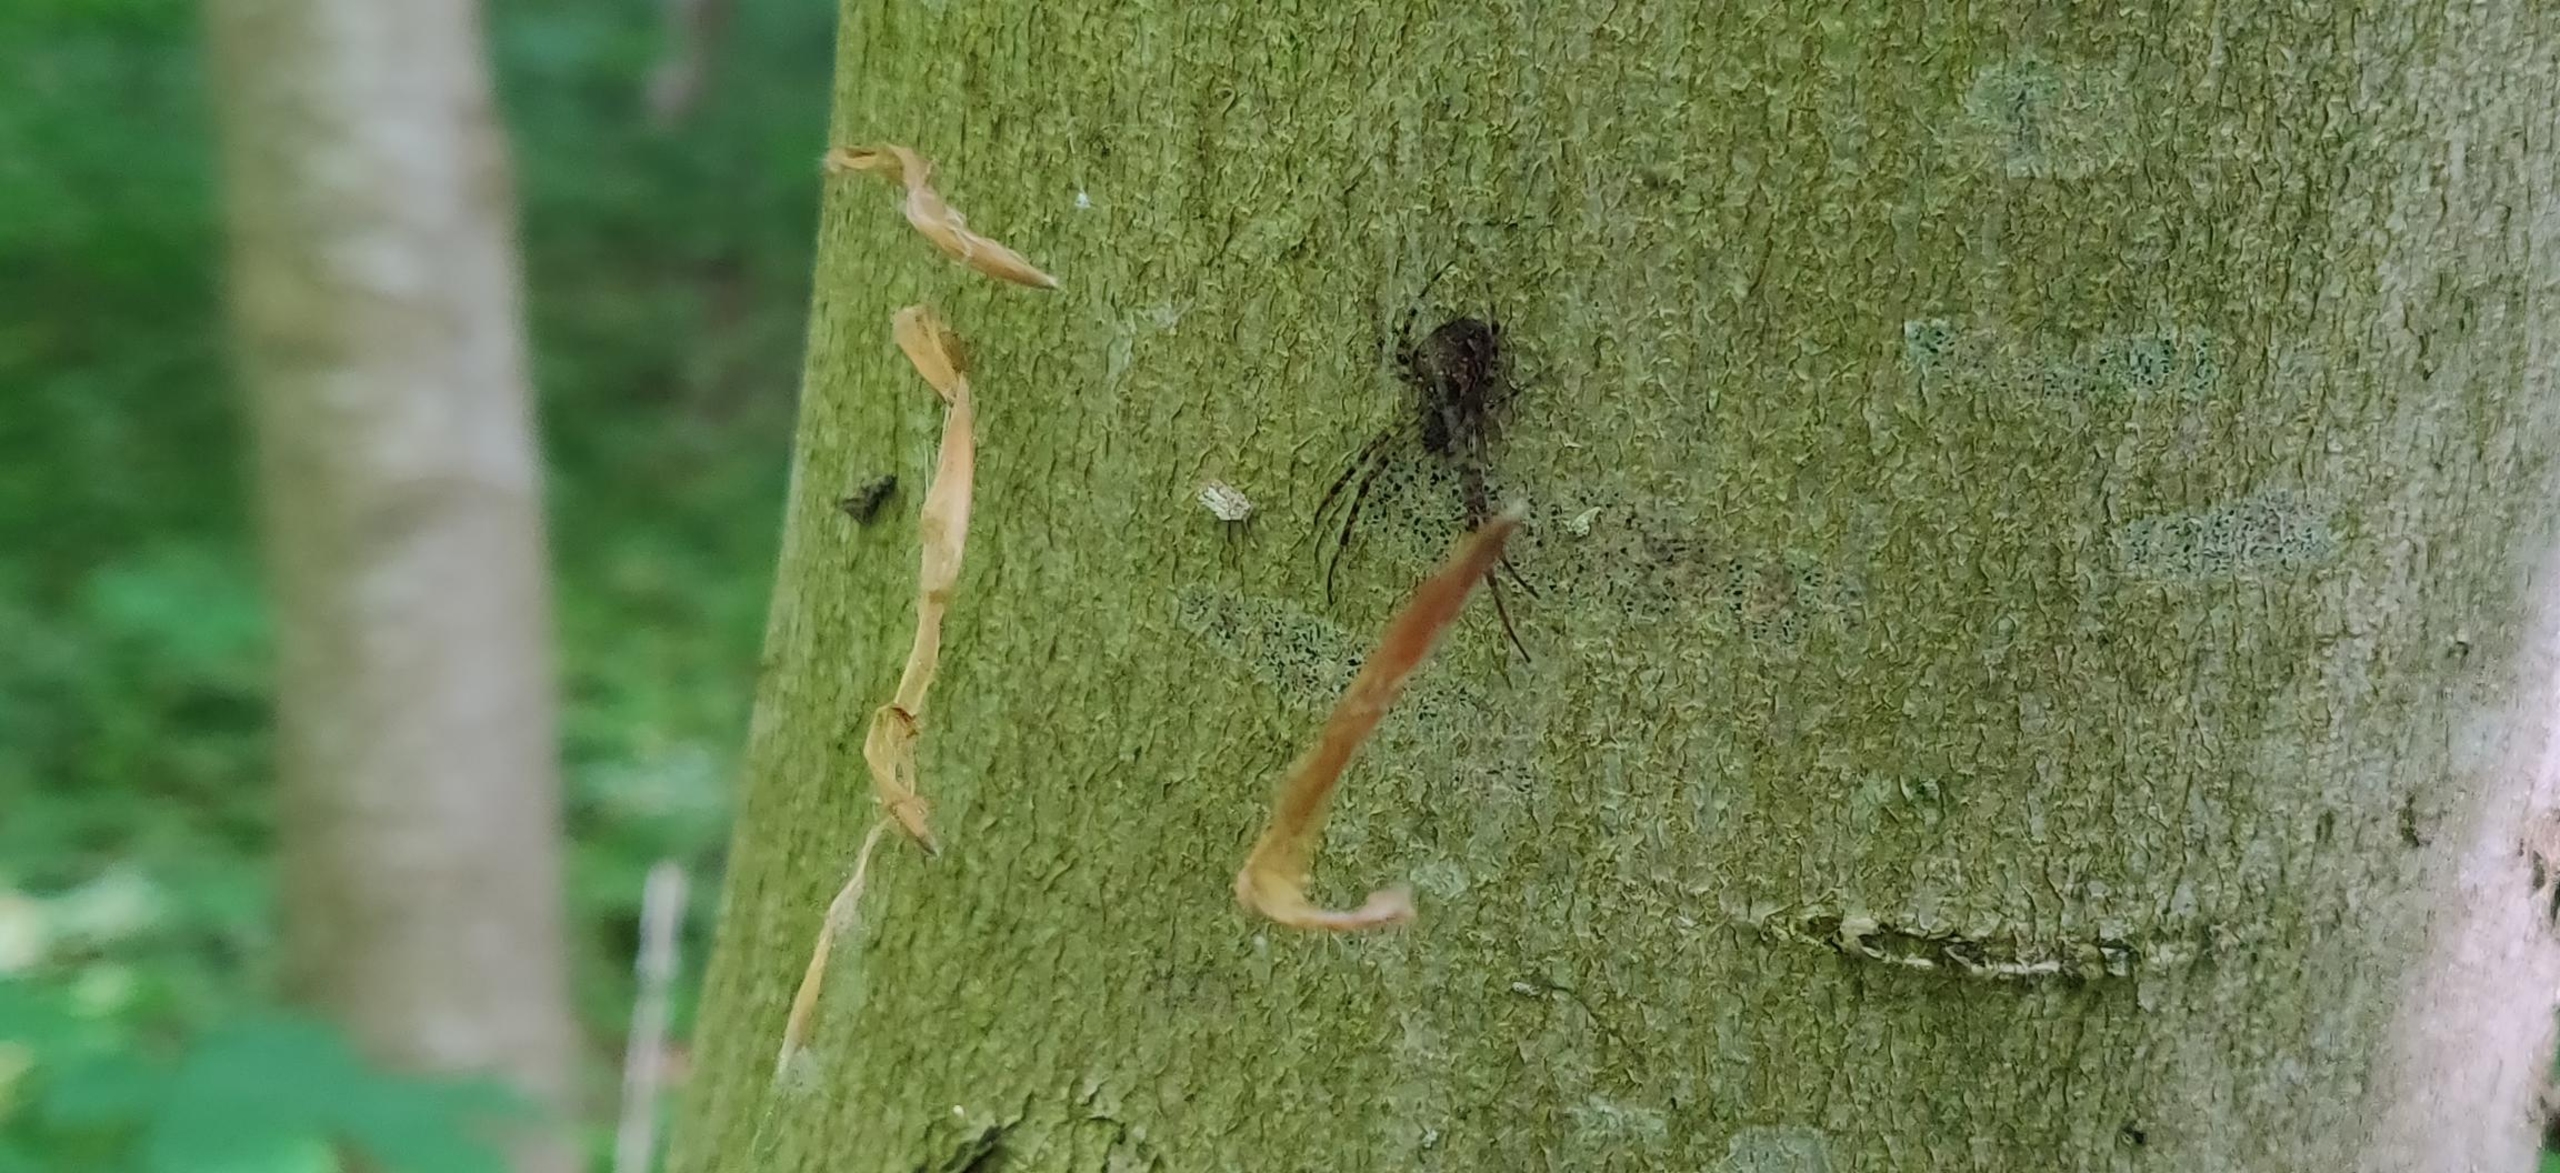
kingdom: Animalia
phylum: Arthropoda
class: Arachnida
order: Araneae
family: Tetragnathidae
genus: Metellina
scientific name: Metellina merianae
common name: Skyggehjulspinder
